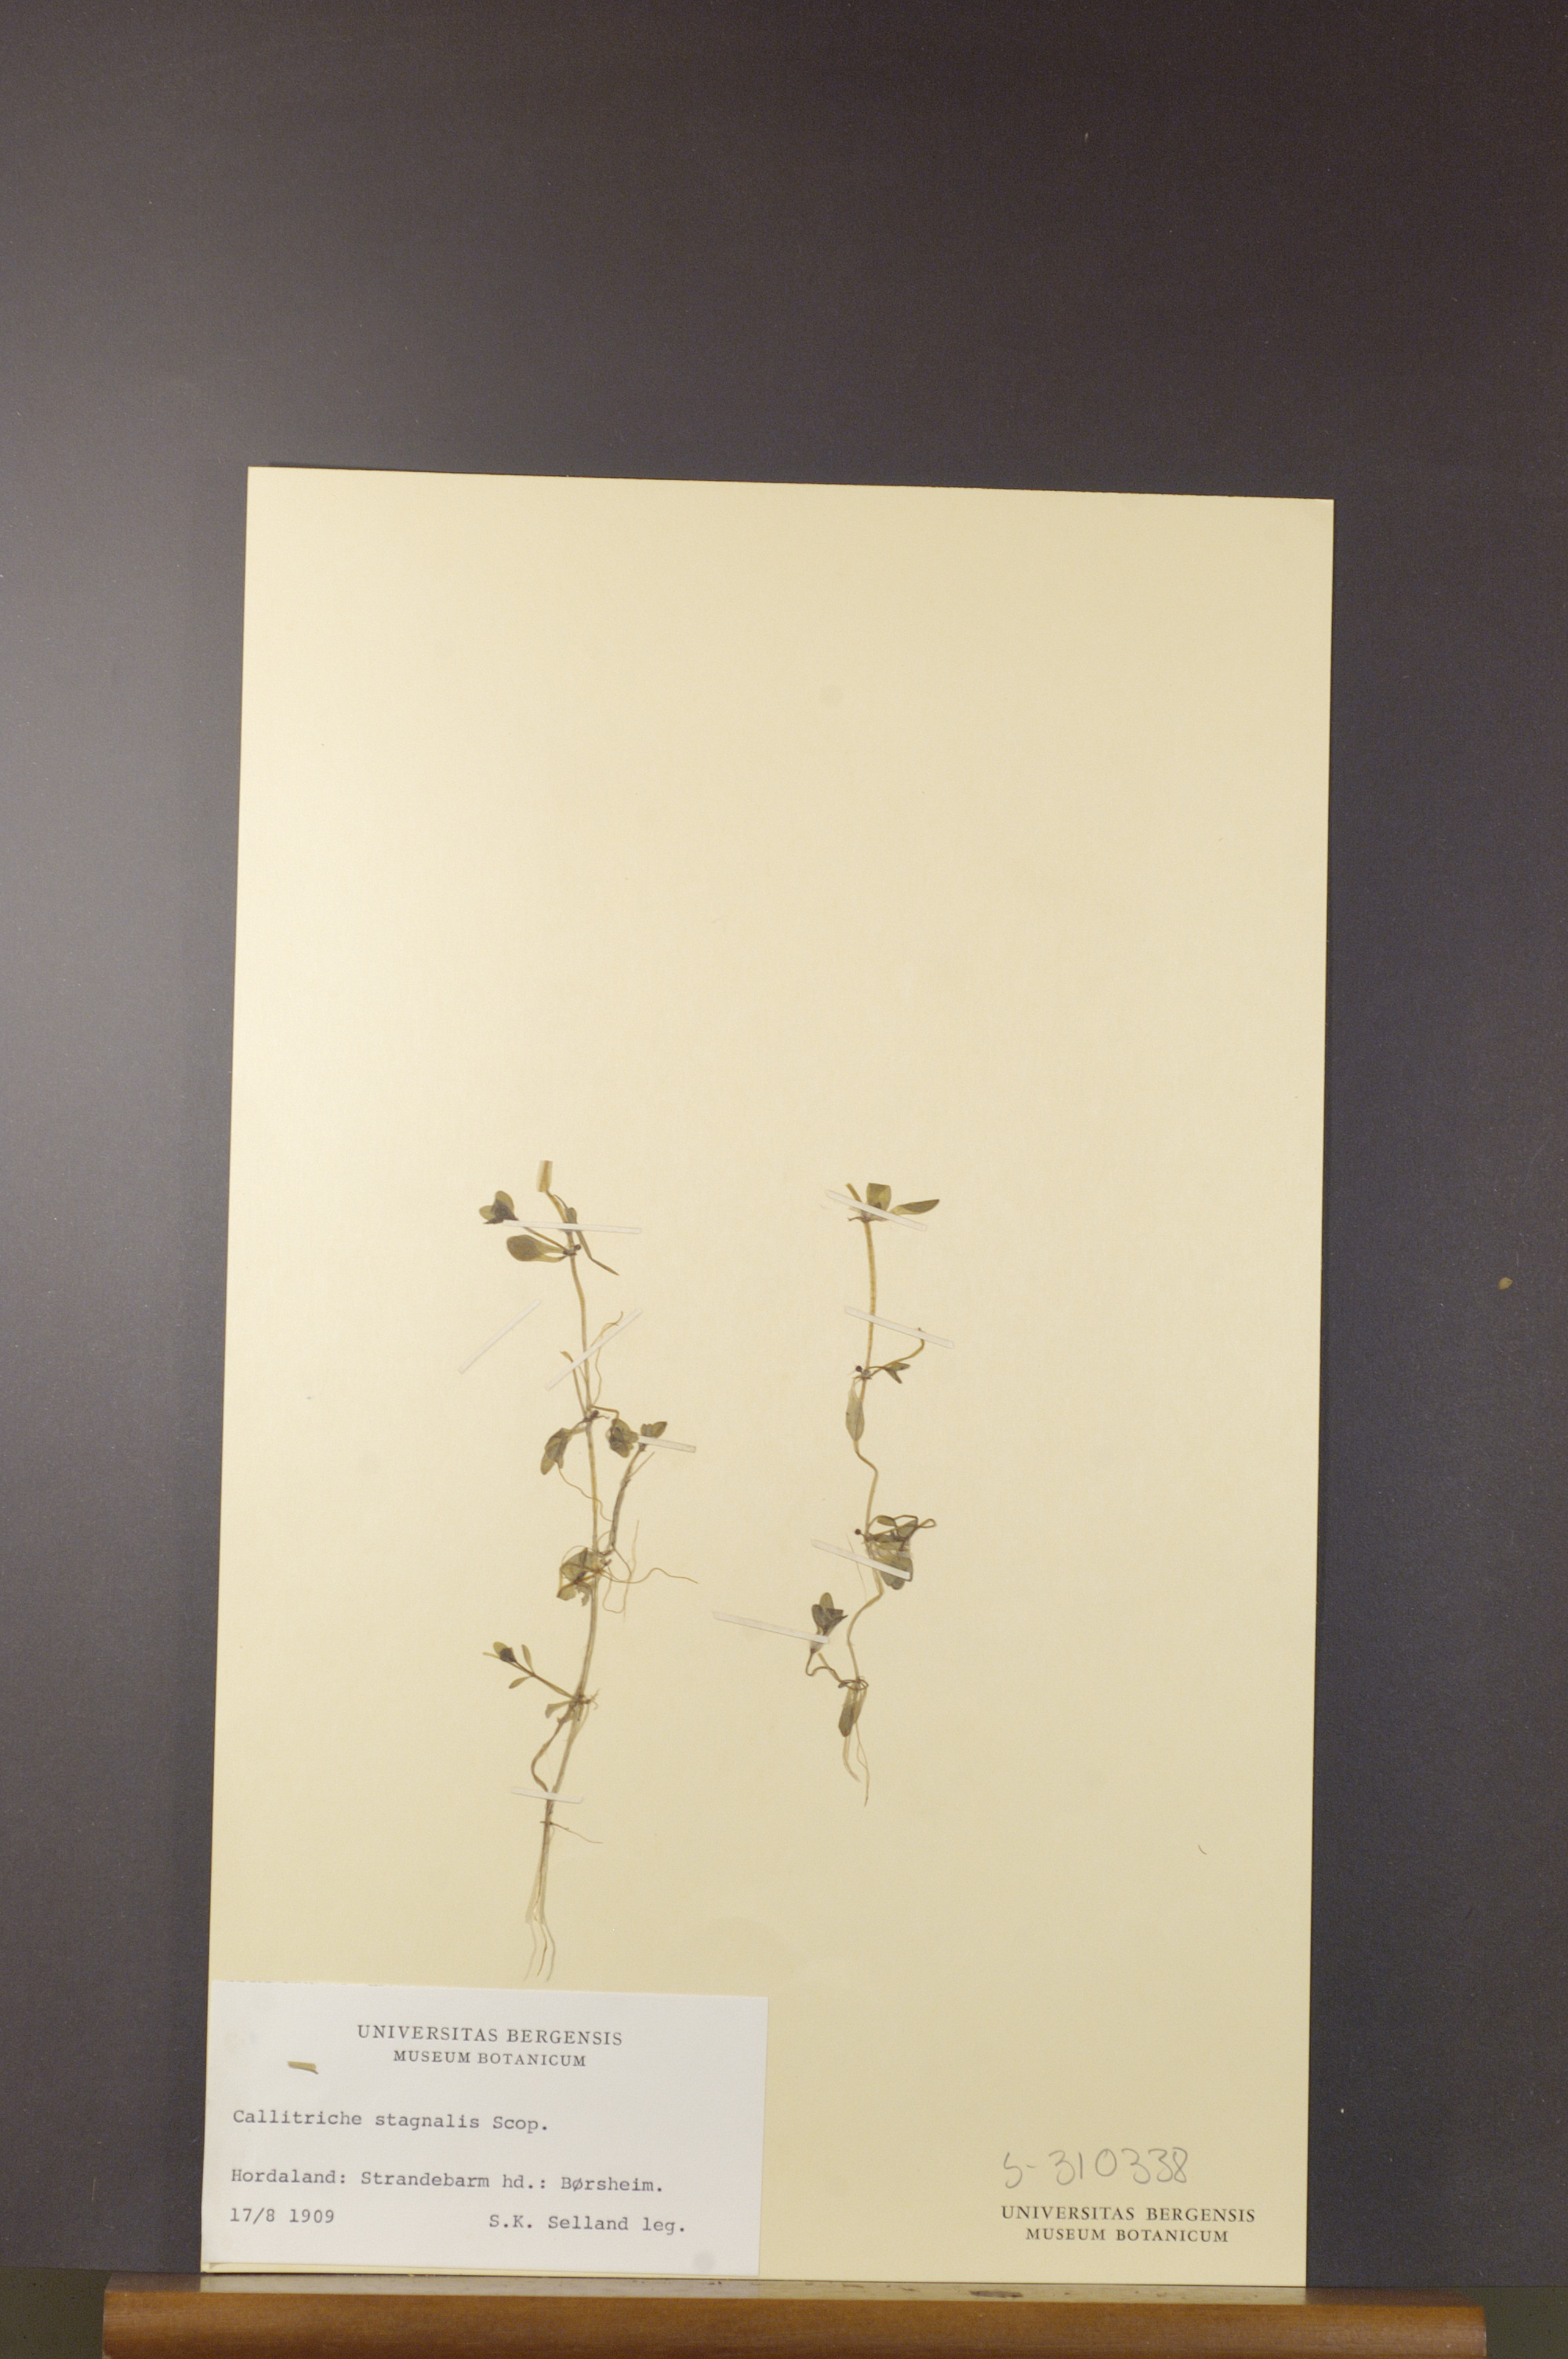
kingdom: Plantae
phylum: Tracheophyta
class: Magnoliopsida
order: Lamiales
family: Plantaginaceae
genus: Callitriche
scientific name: Callitriche stagnalis
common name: Common water-starwort
